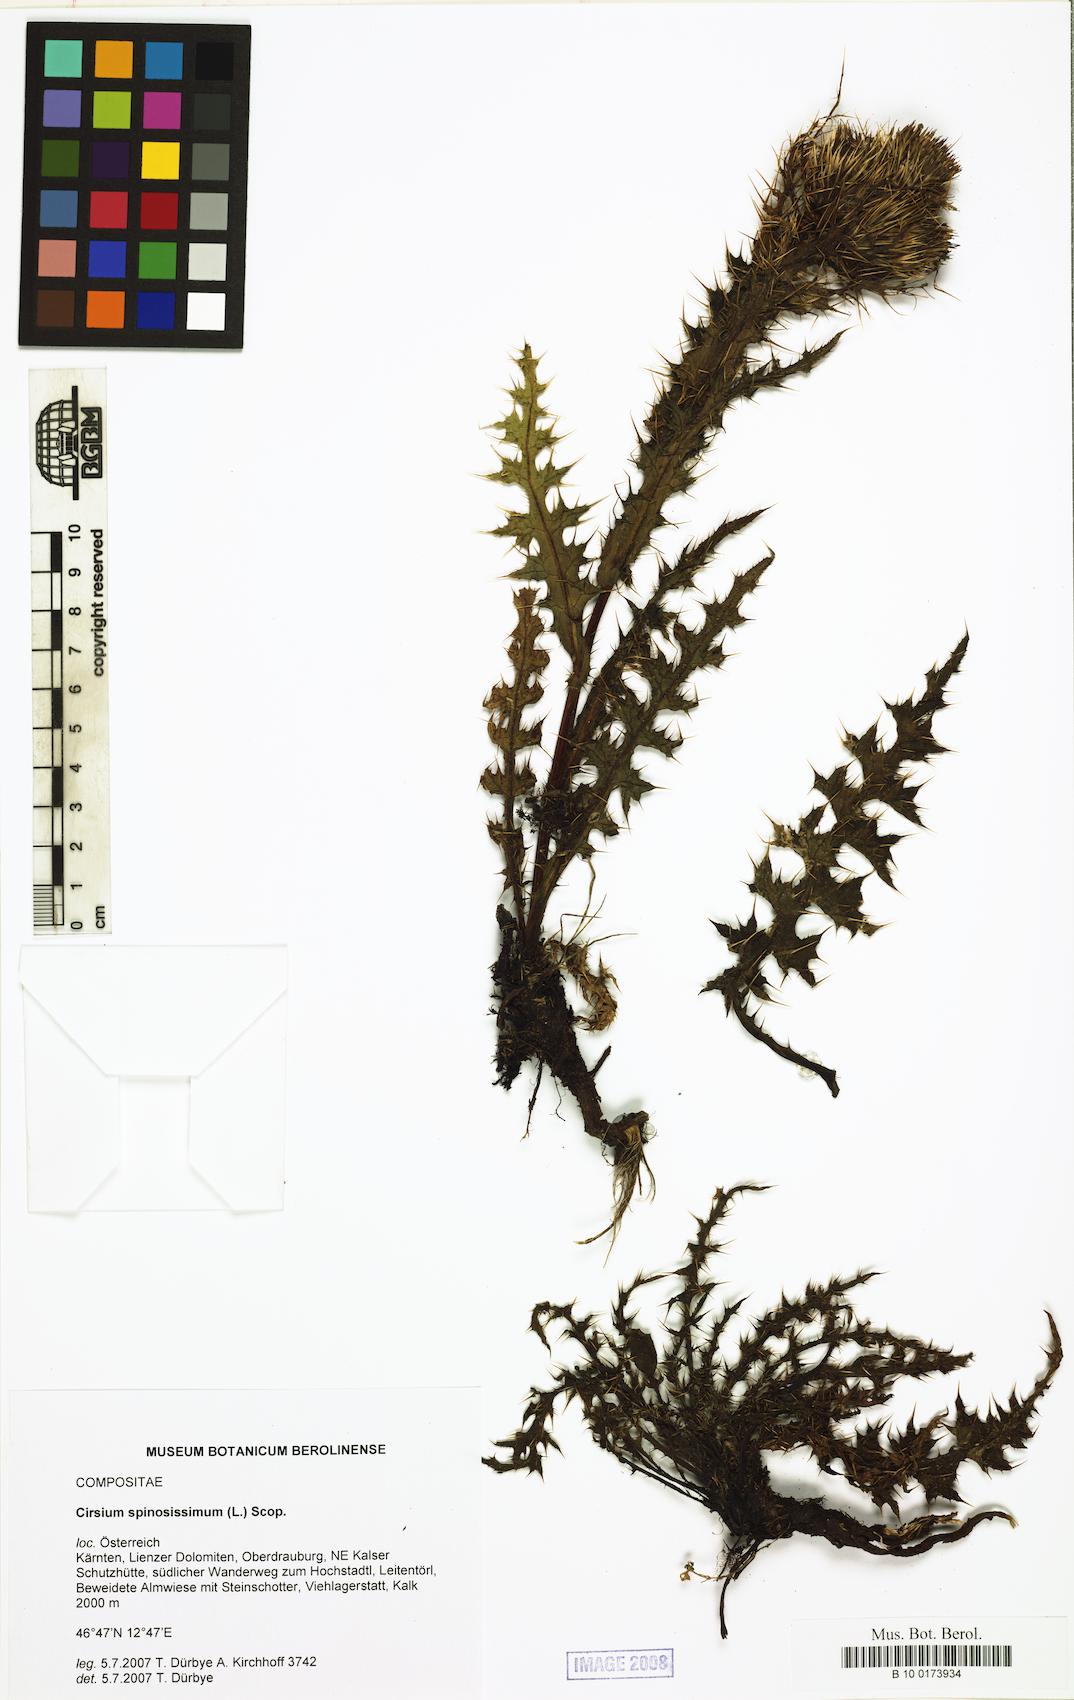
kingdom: Plantae
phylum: Tracheophyta
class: Magnoliopsida
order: Asterales
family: Asteraceae
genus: Cirsium
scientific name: Cirsium spinosissimum
